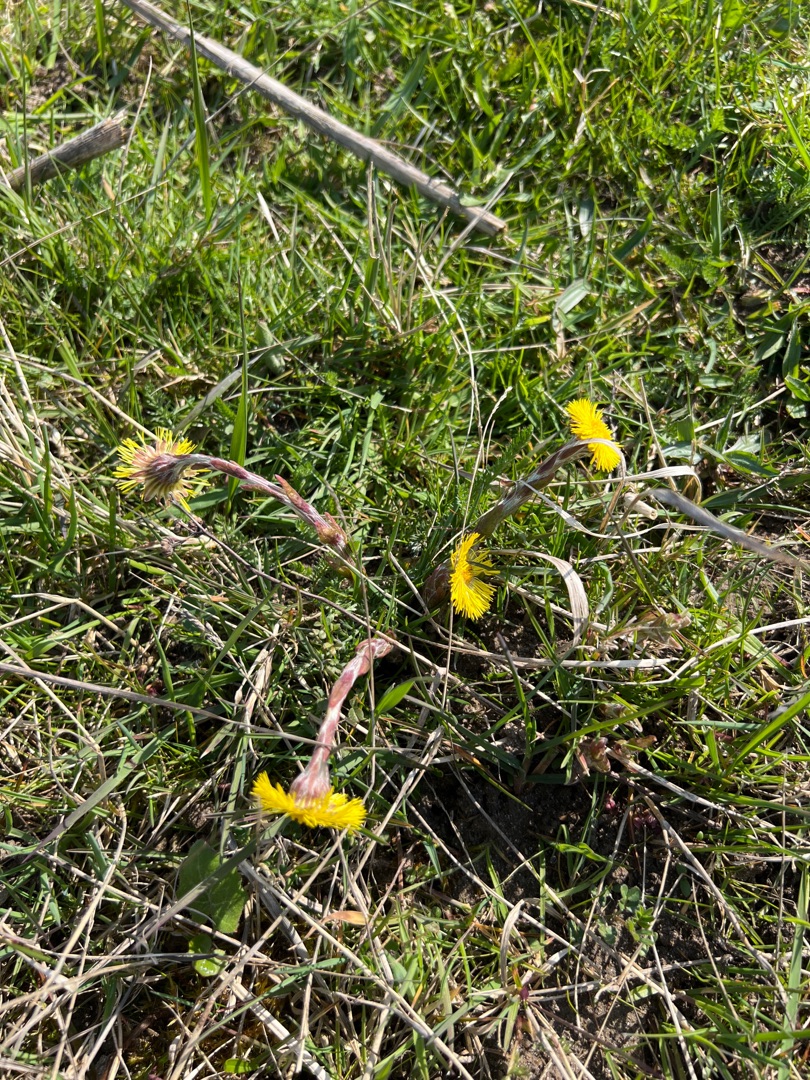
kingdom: Plantae
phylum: Tracheophyta
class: Magnoliopsida
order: Asterales
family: Asteraceae
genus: Tussilago
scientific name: Tussilago farfara
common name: Følfod
